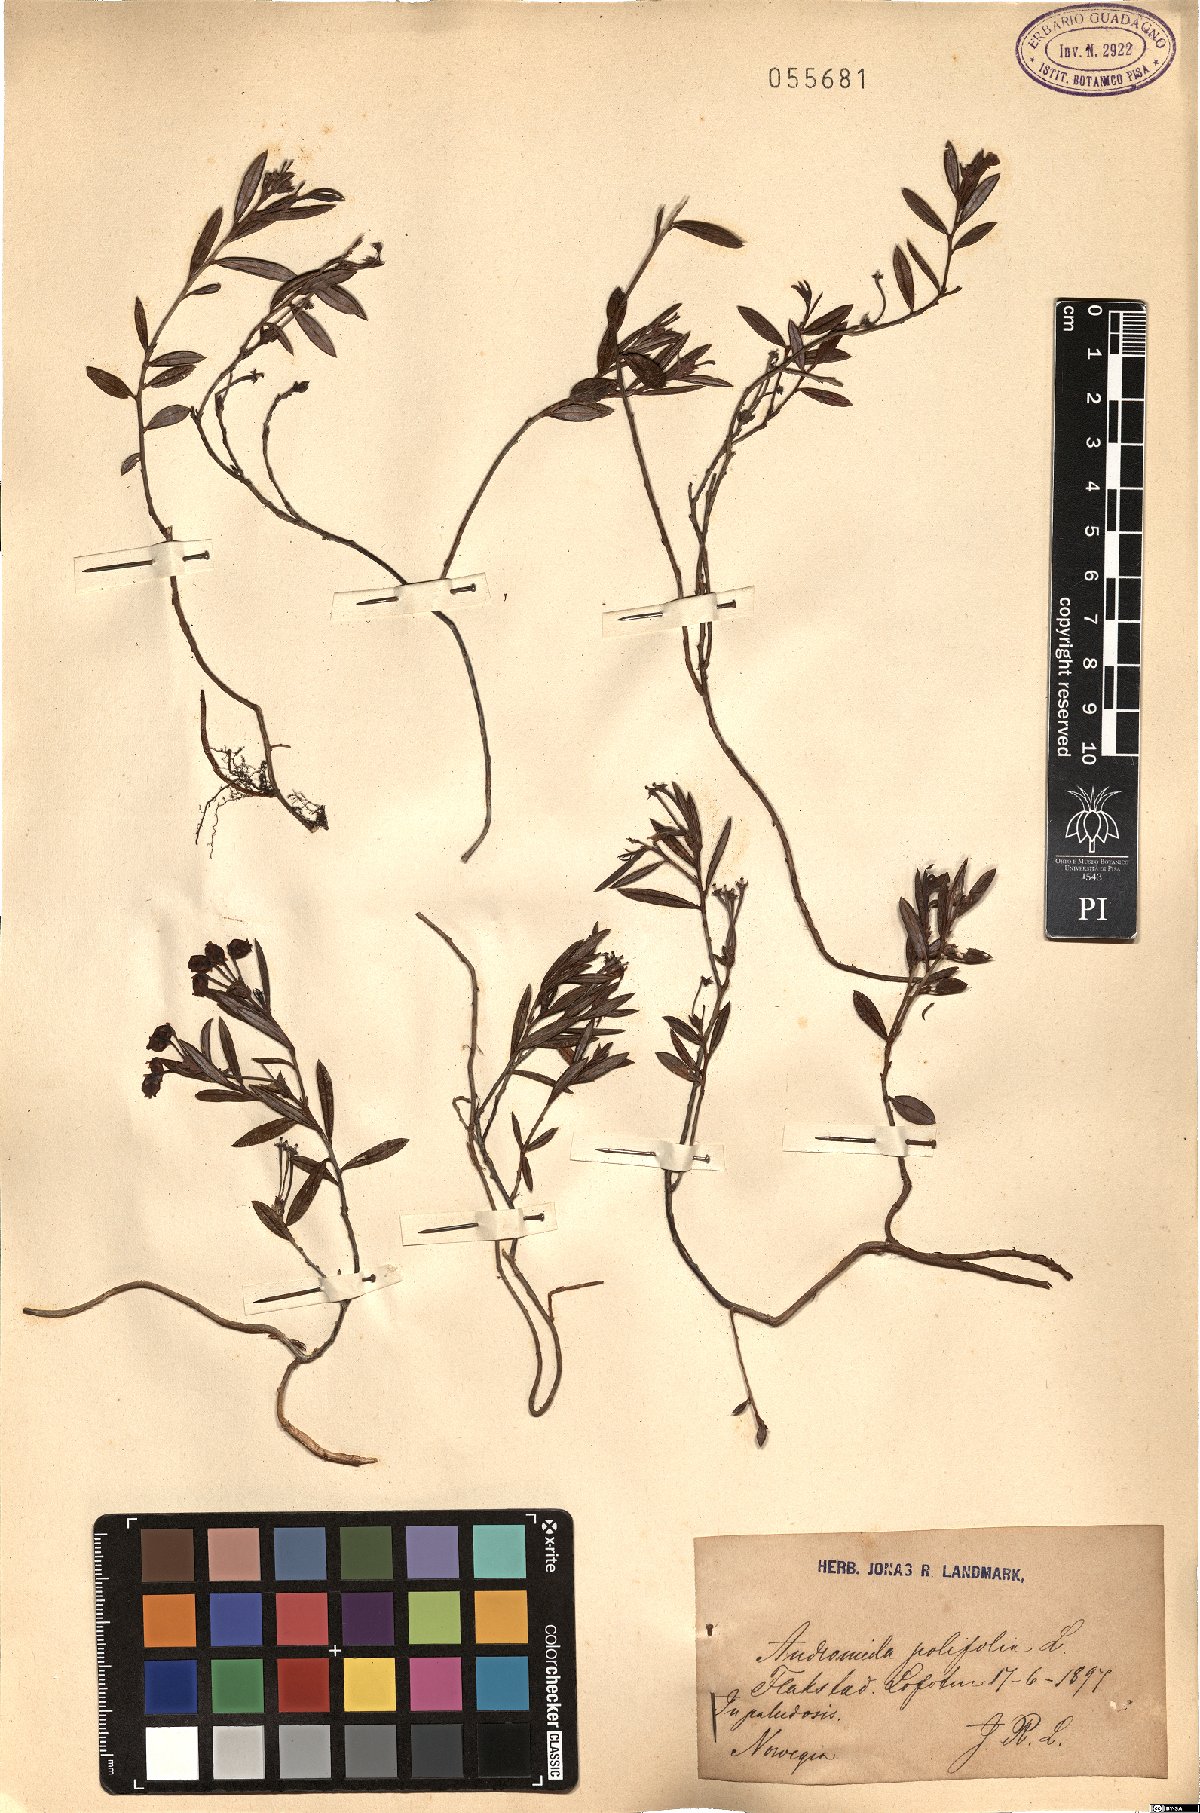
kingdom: Plantae
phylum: Tracheophyta
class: Magnoliopsida
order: Ericales
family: Ericaceae
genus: Andromeda
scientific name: Andromeda polifolia
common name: Bog-rosemary
